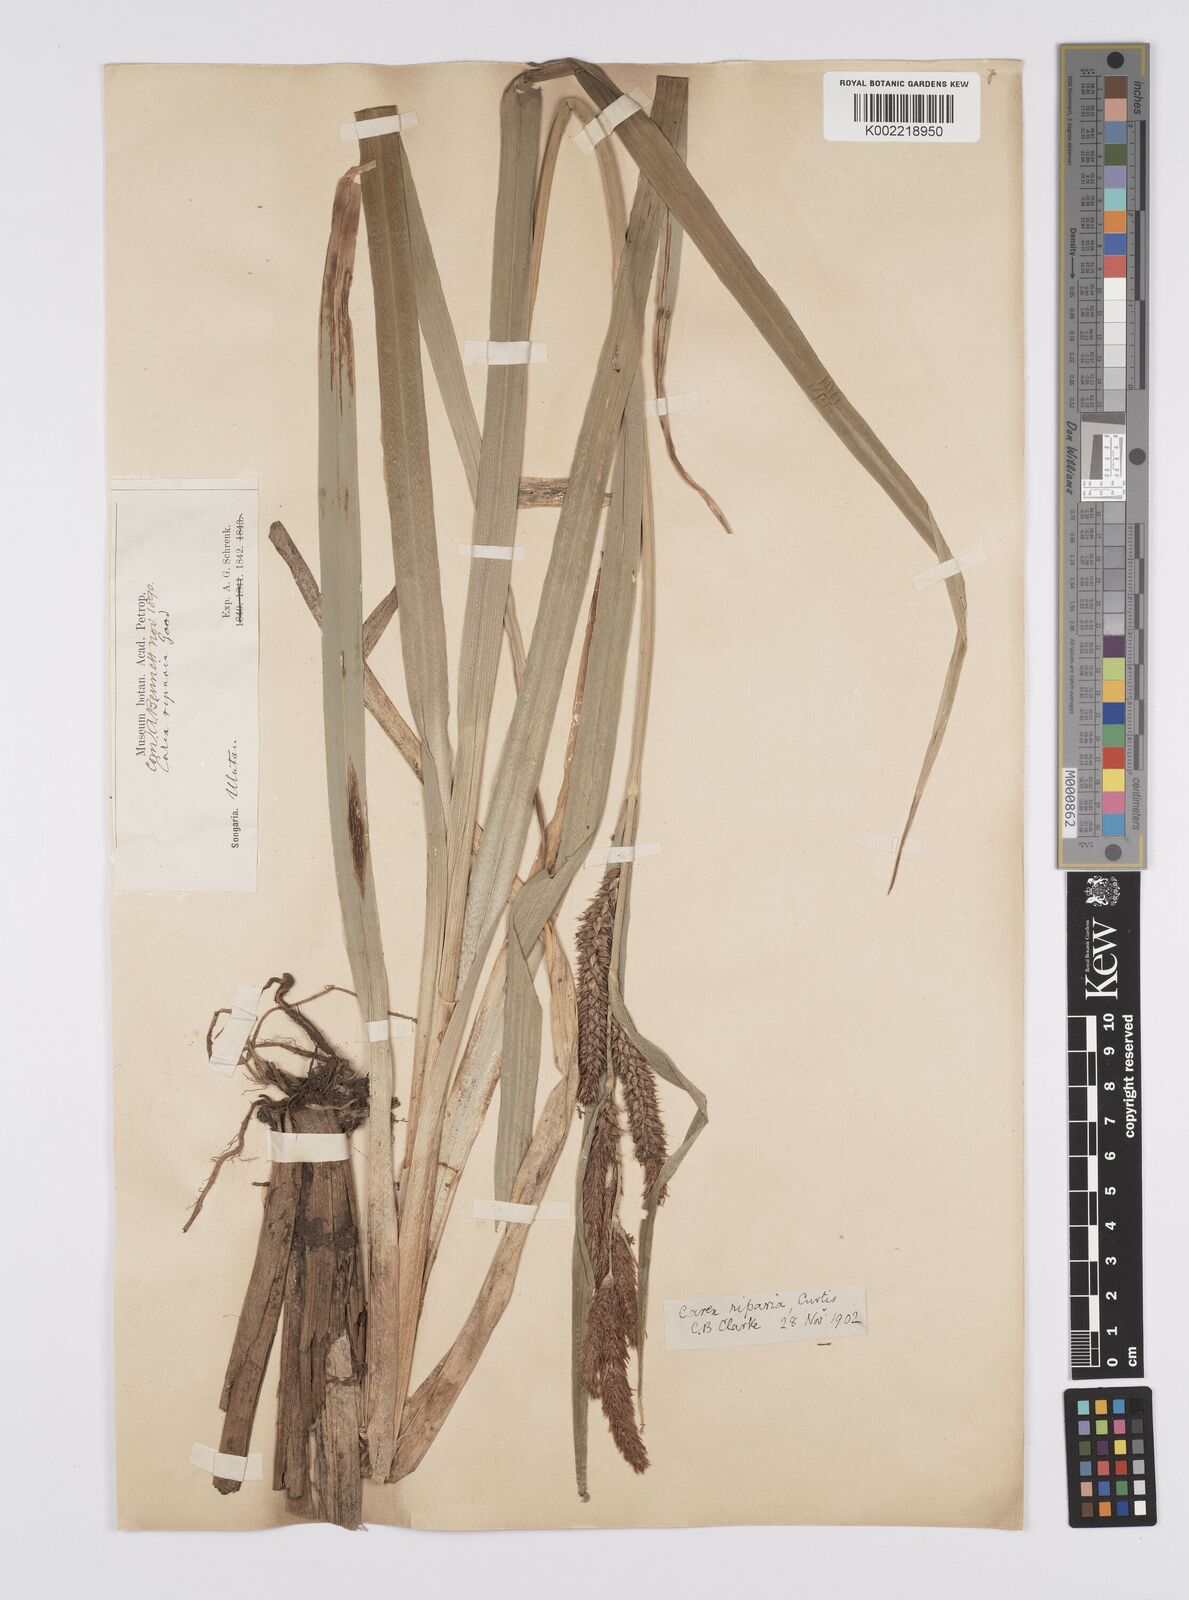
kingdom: Plantae
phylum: Tracheophyta
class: Liliopsida
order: Poales
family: Cyperaceae
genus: Carex
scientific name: Carex riparia
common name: Greater pond-sedge
